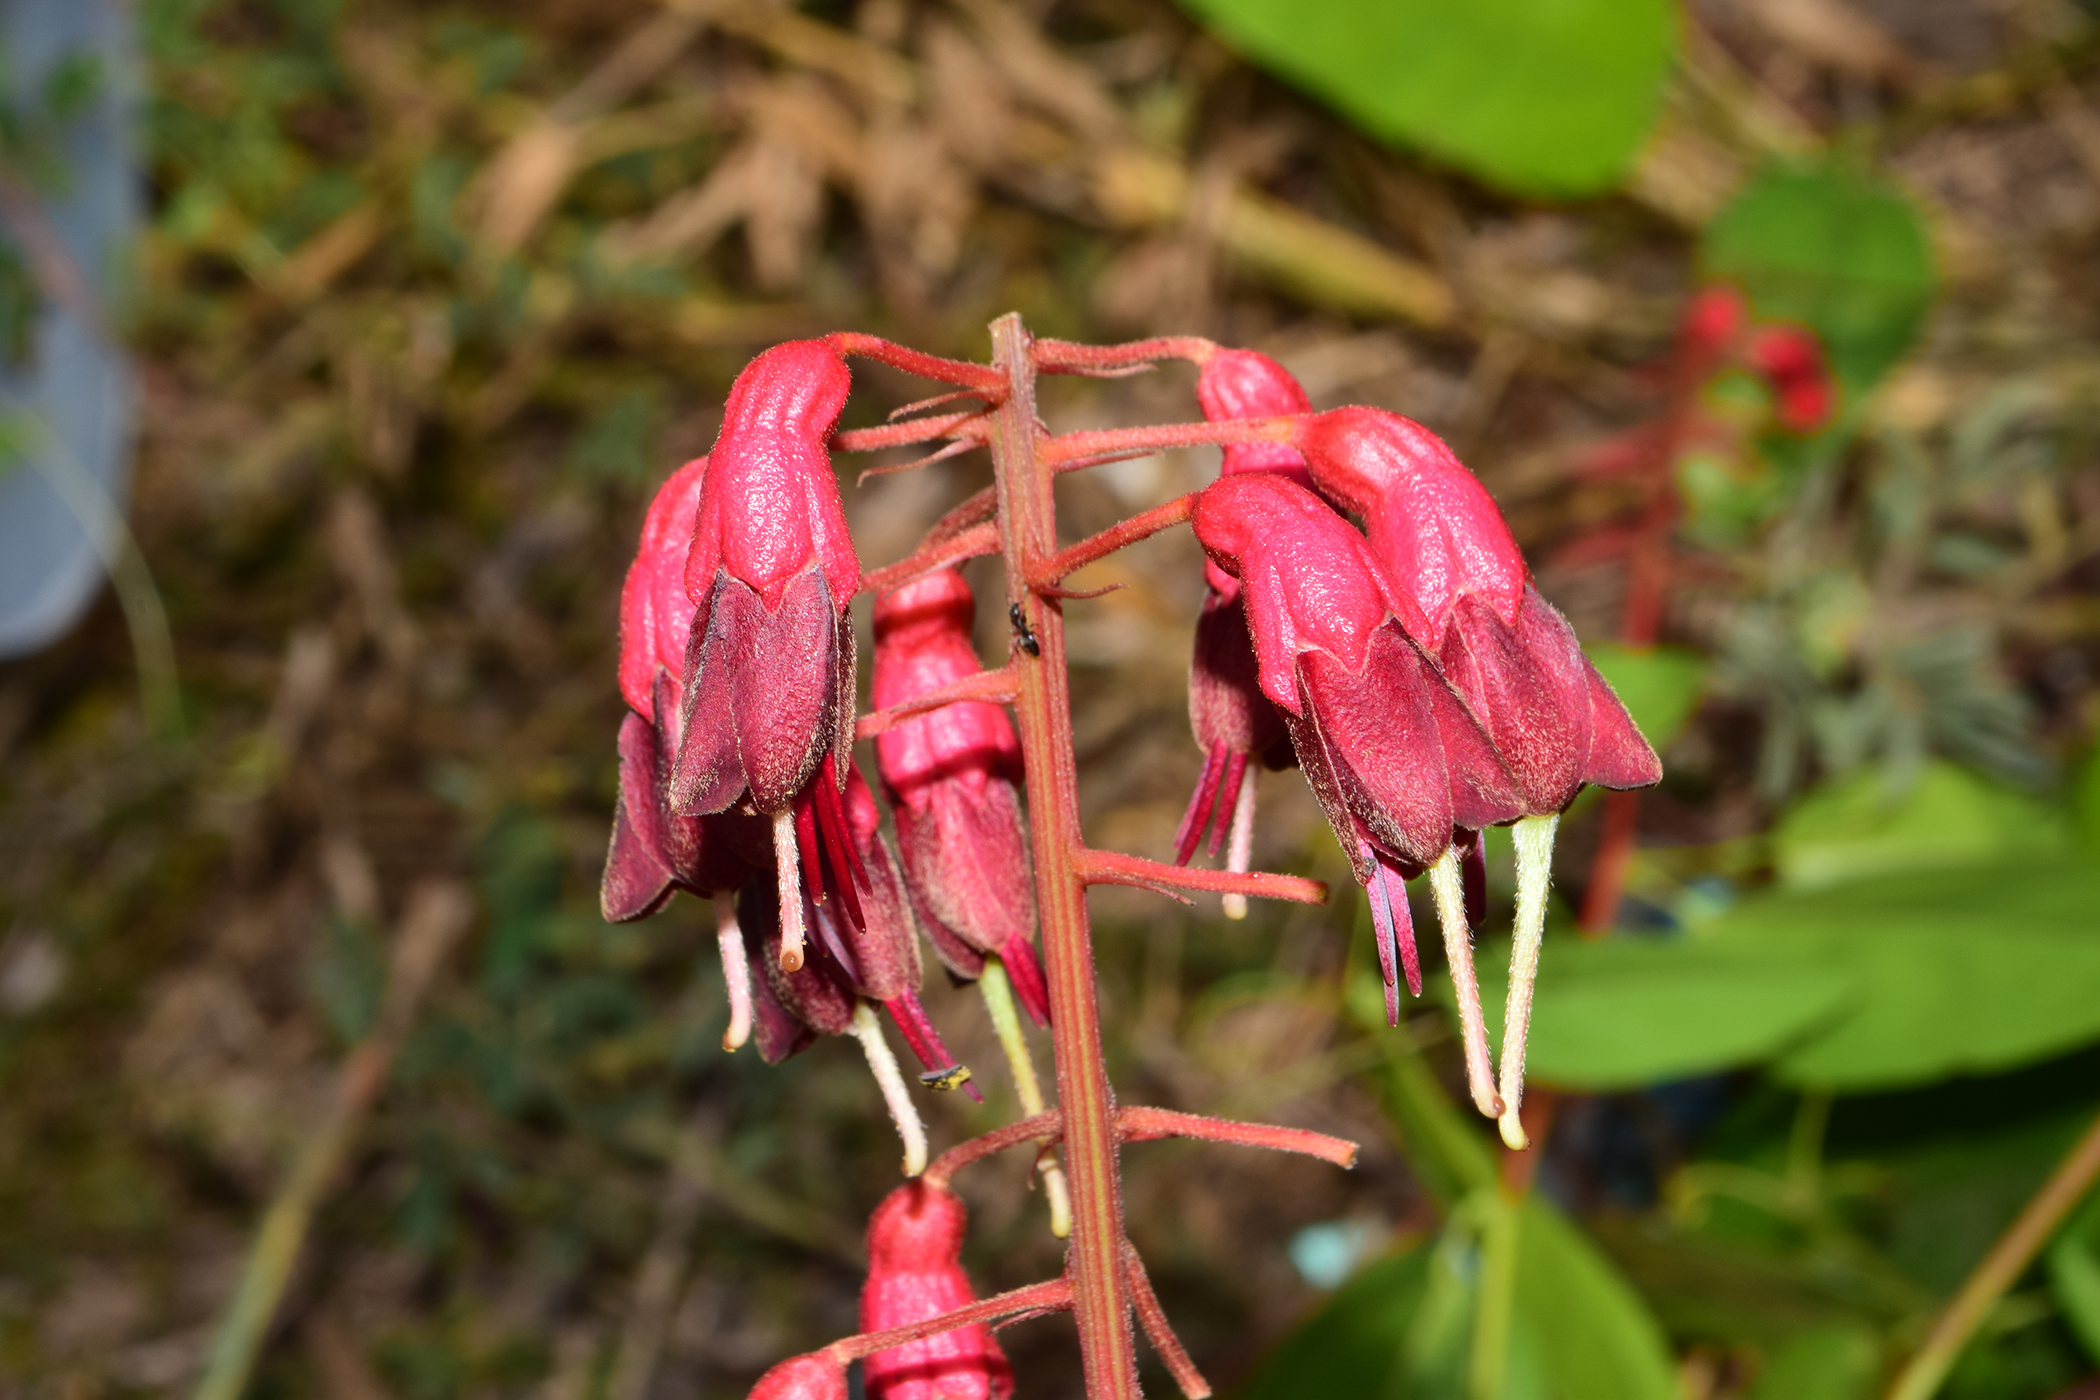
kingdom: Plantae
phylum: Tracheophyta
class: Magnoliopsida
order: Fabales
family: Fabaceae
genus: Lysiphyllum
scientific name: Lysiphyllum strychnifolium
